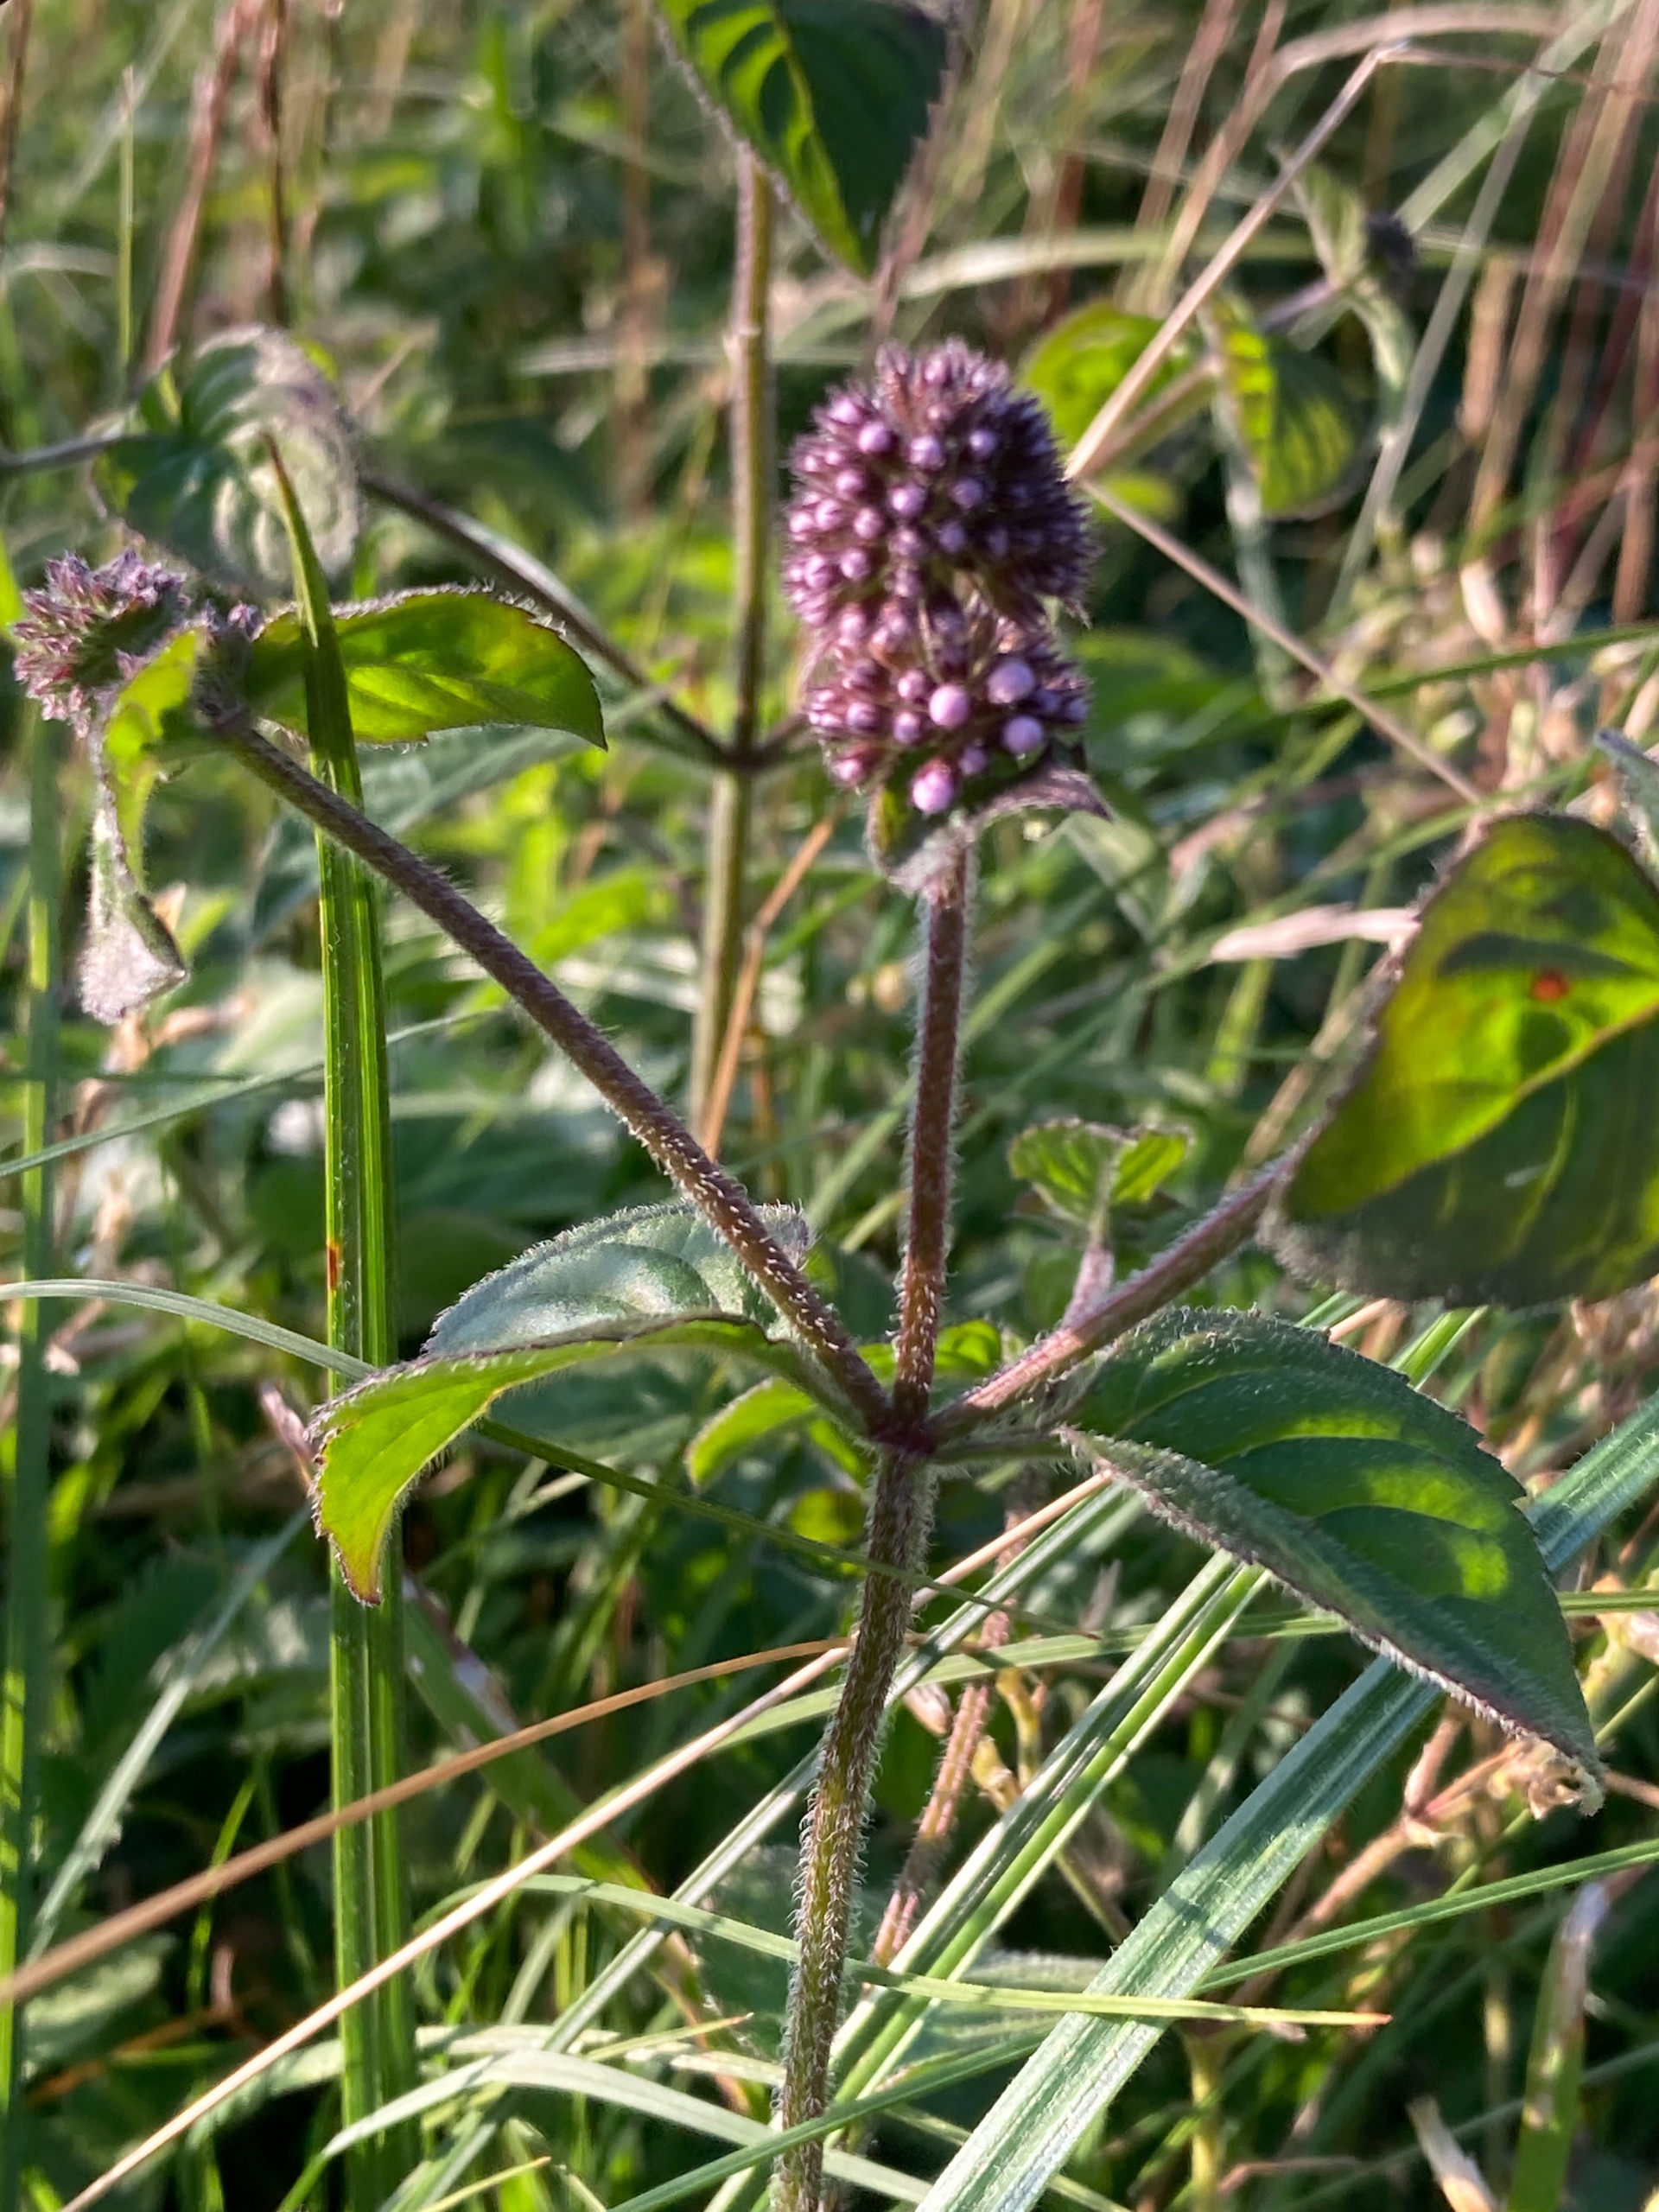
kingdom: Plantae
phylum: Tracheophyta
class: Magnoliopsida
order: Lamiales
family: Lamiaceae
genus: Mentha
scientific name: Mentha aquatica
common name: Vand-mynte
